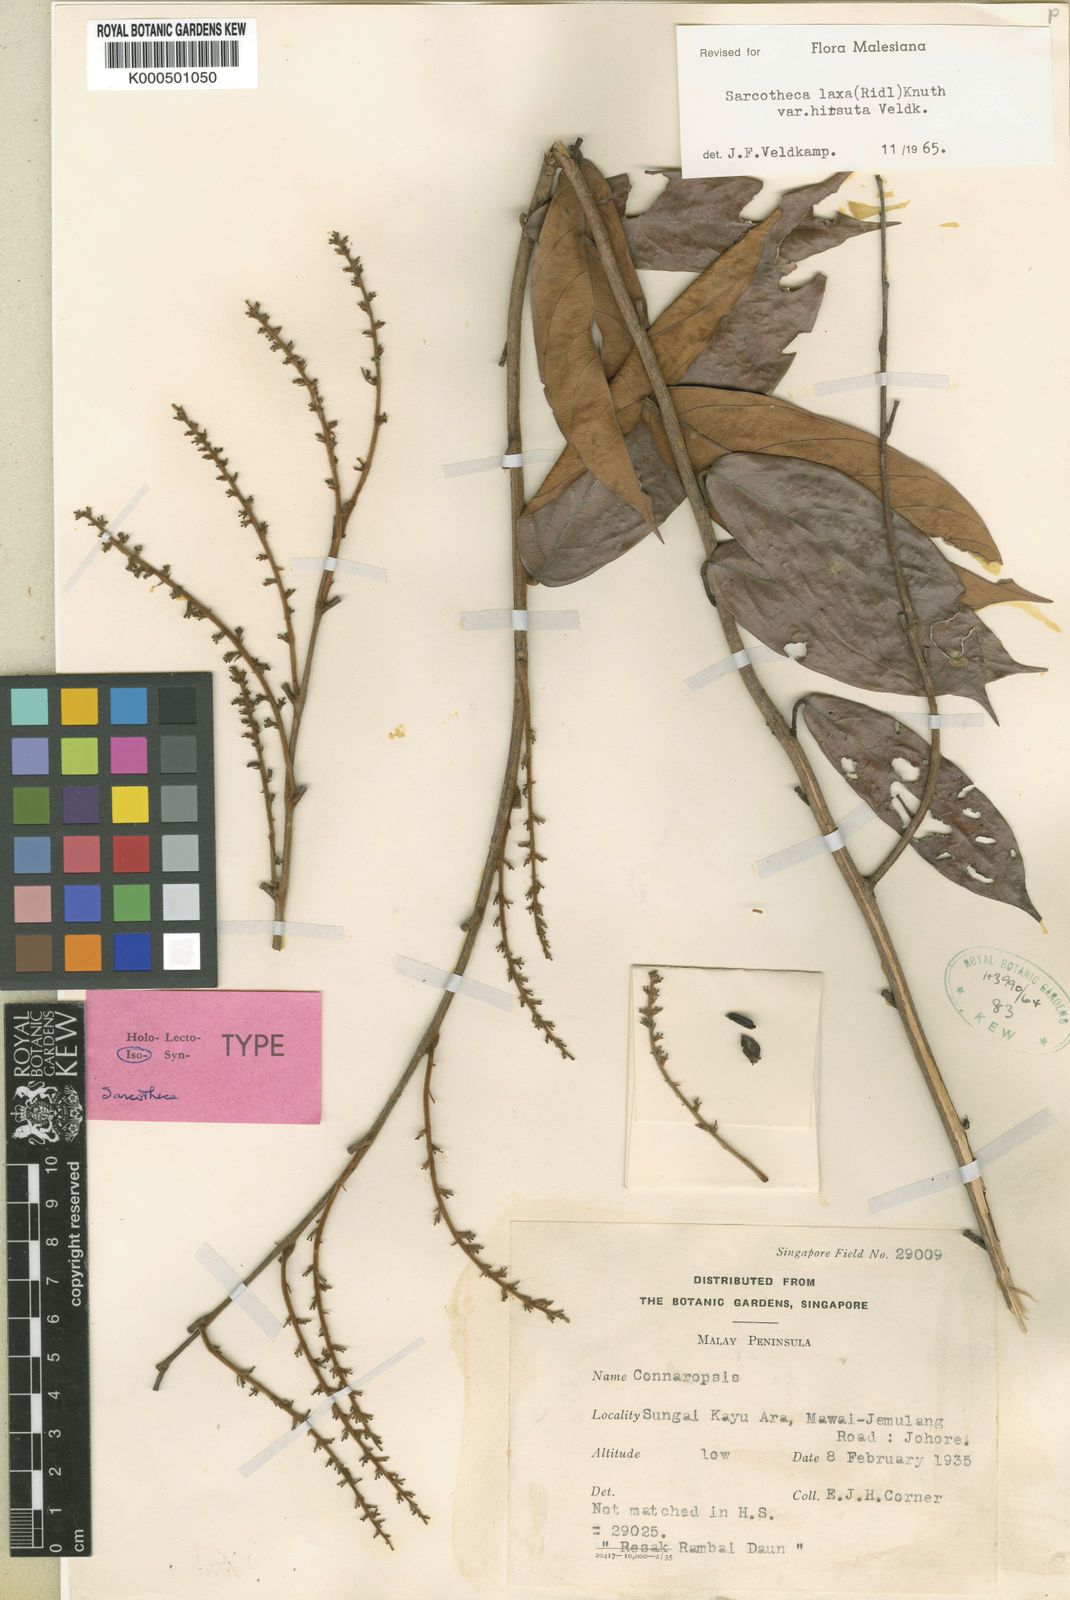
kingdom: Plantae
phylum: Tracheophyta
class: Magnoliopsida
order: Oxalidales
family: Oxalidaceae
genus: Sarcotheca
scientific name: Sarcotheca laxa
